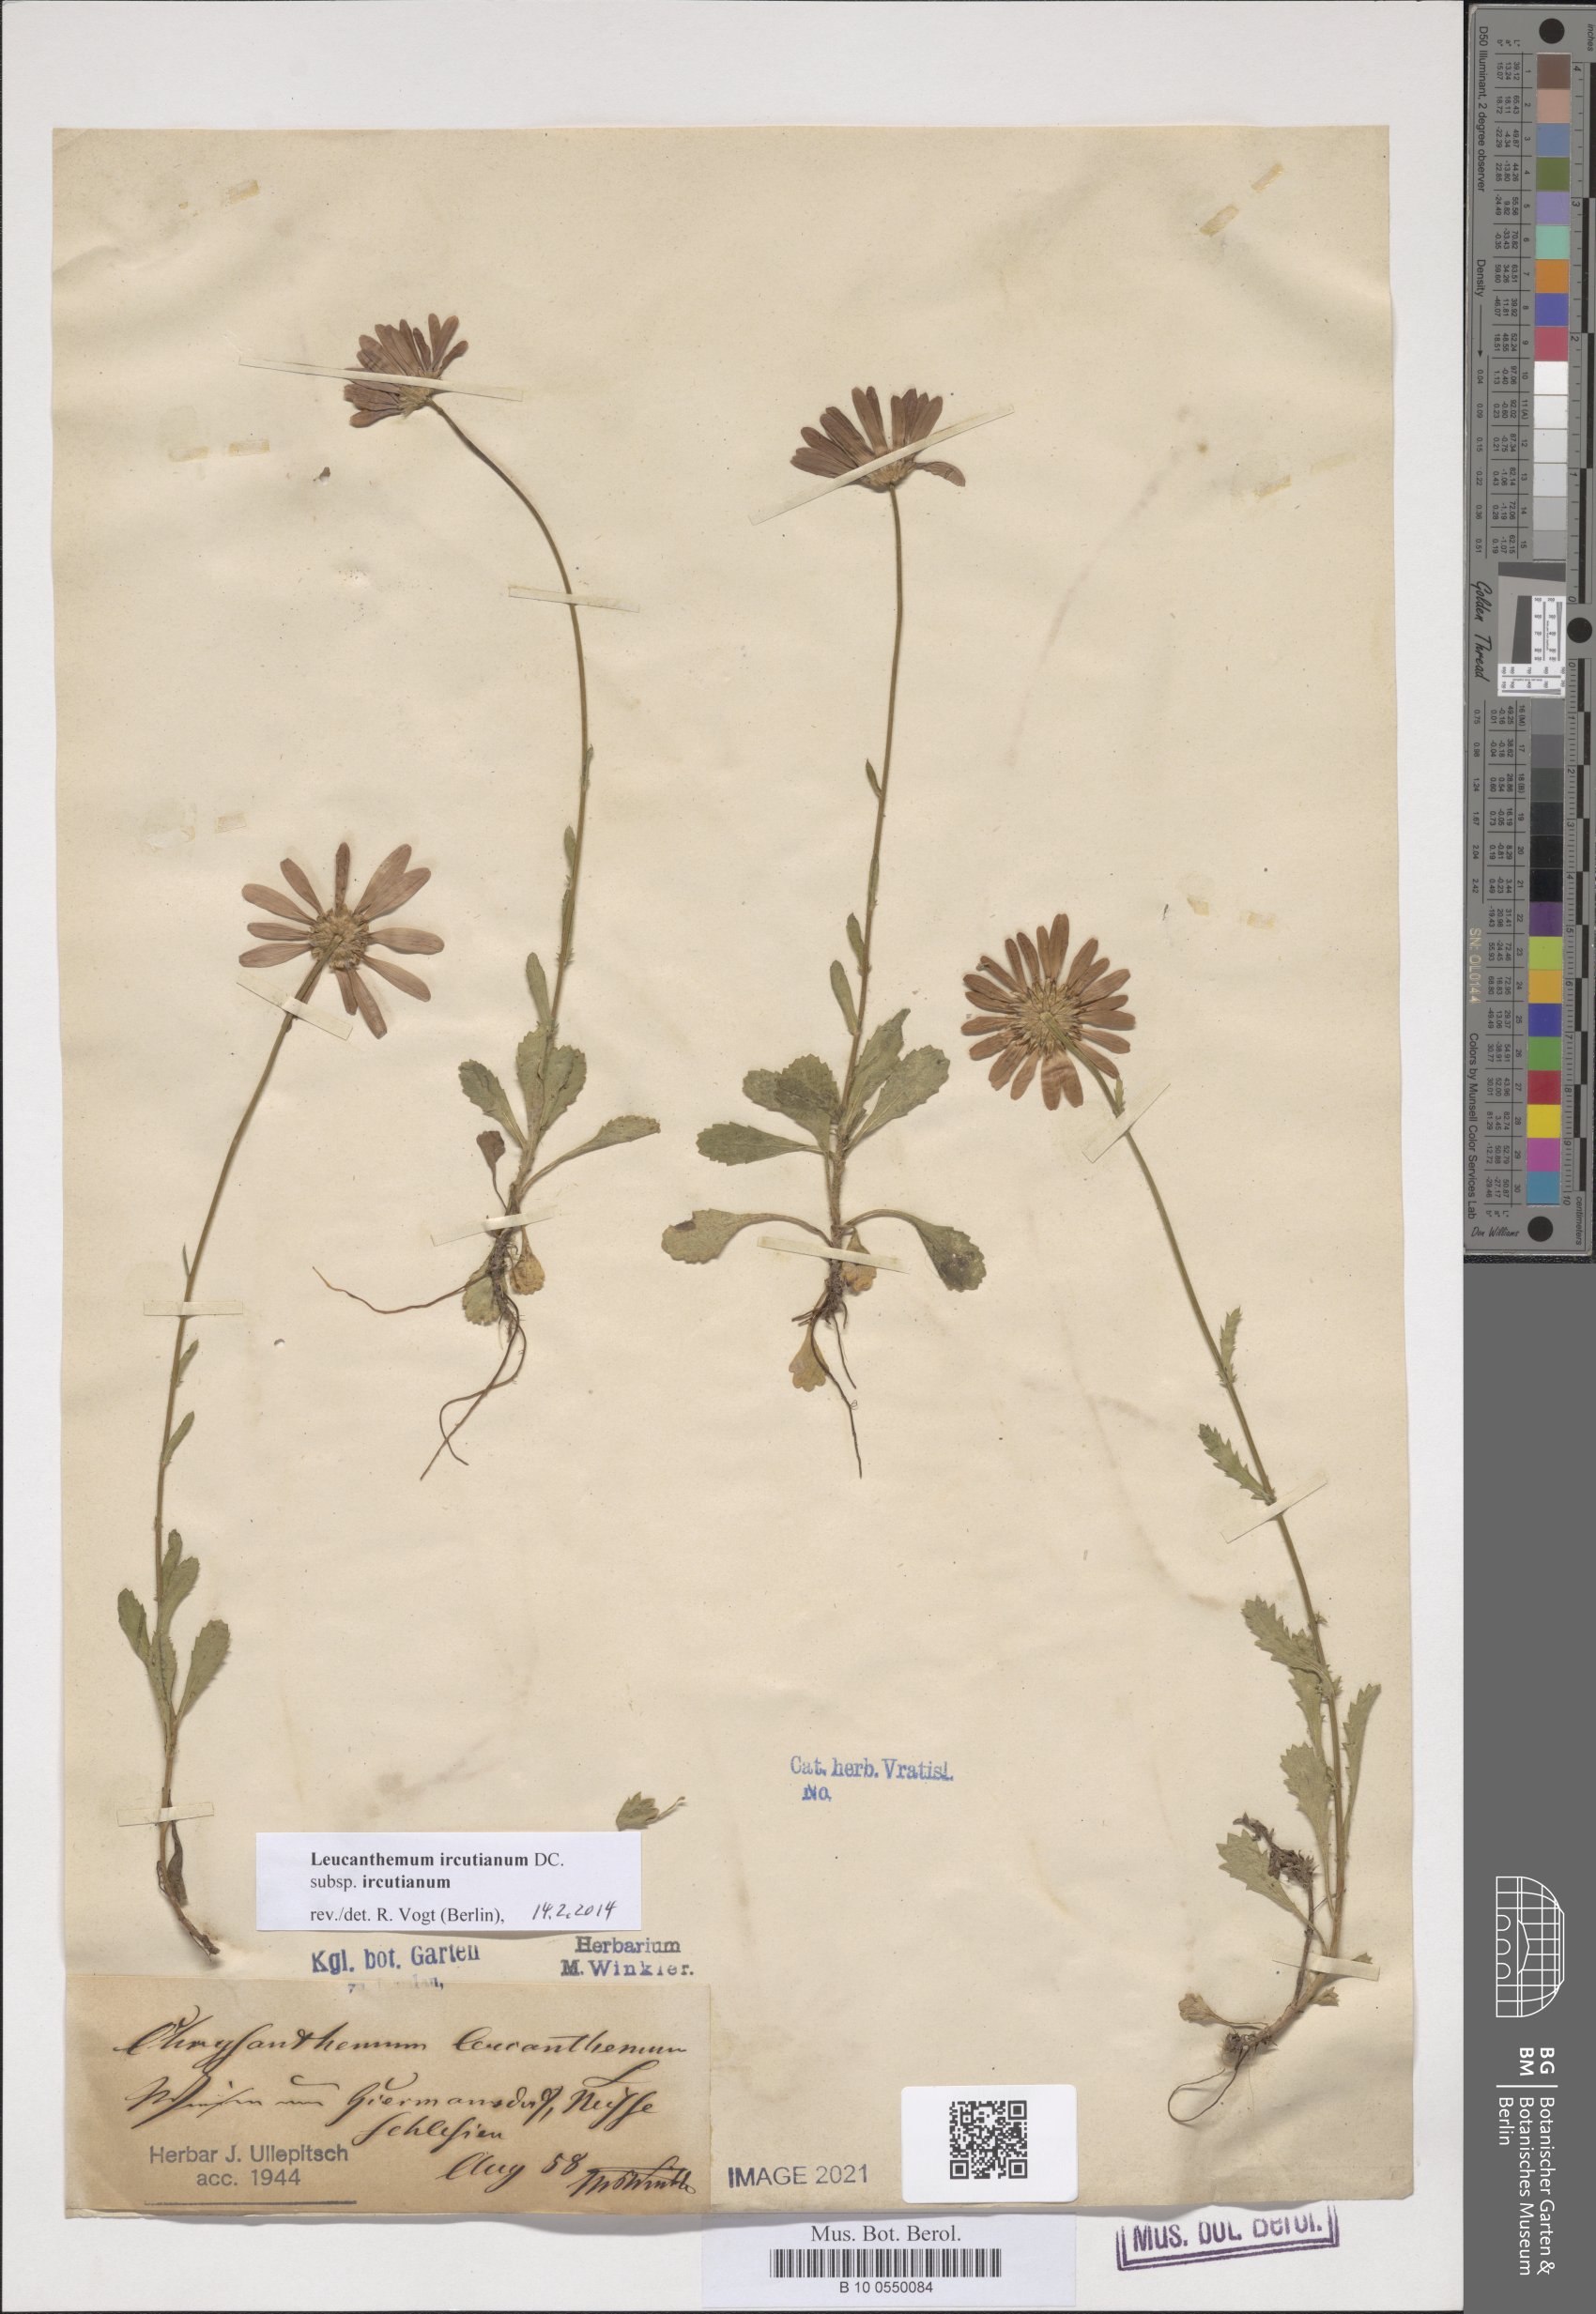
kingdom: Plantae
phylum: Tracheophyta
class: Magnoliopsida
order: Asterales
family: Asteraceae
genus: Leucanthemum
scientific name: Leucanthemum ircutianum
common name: Daisy
